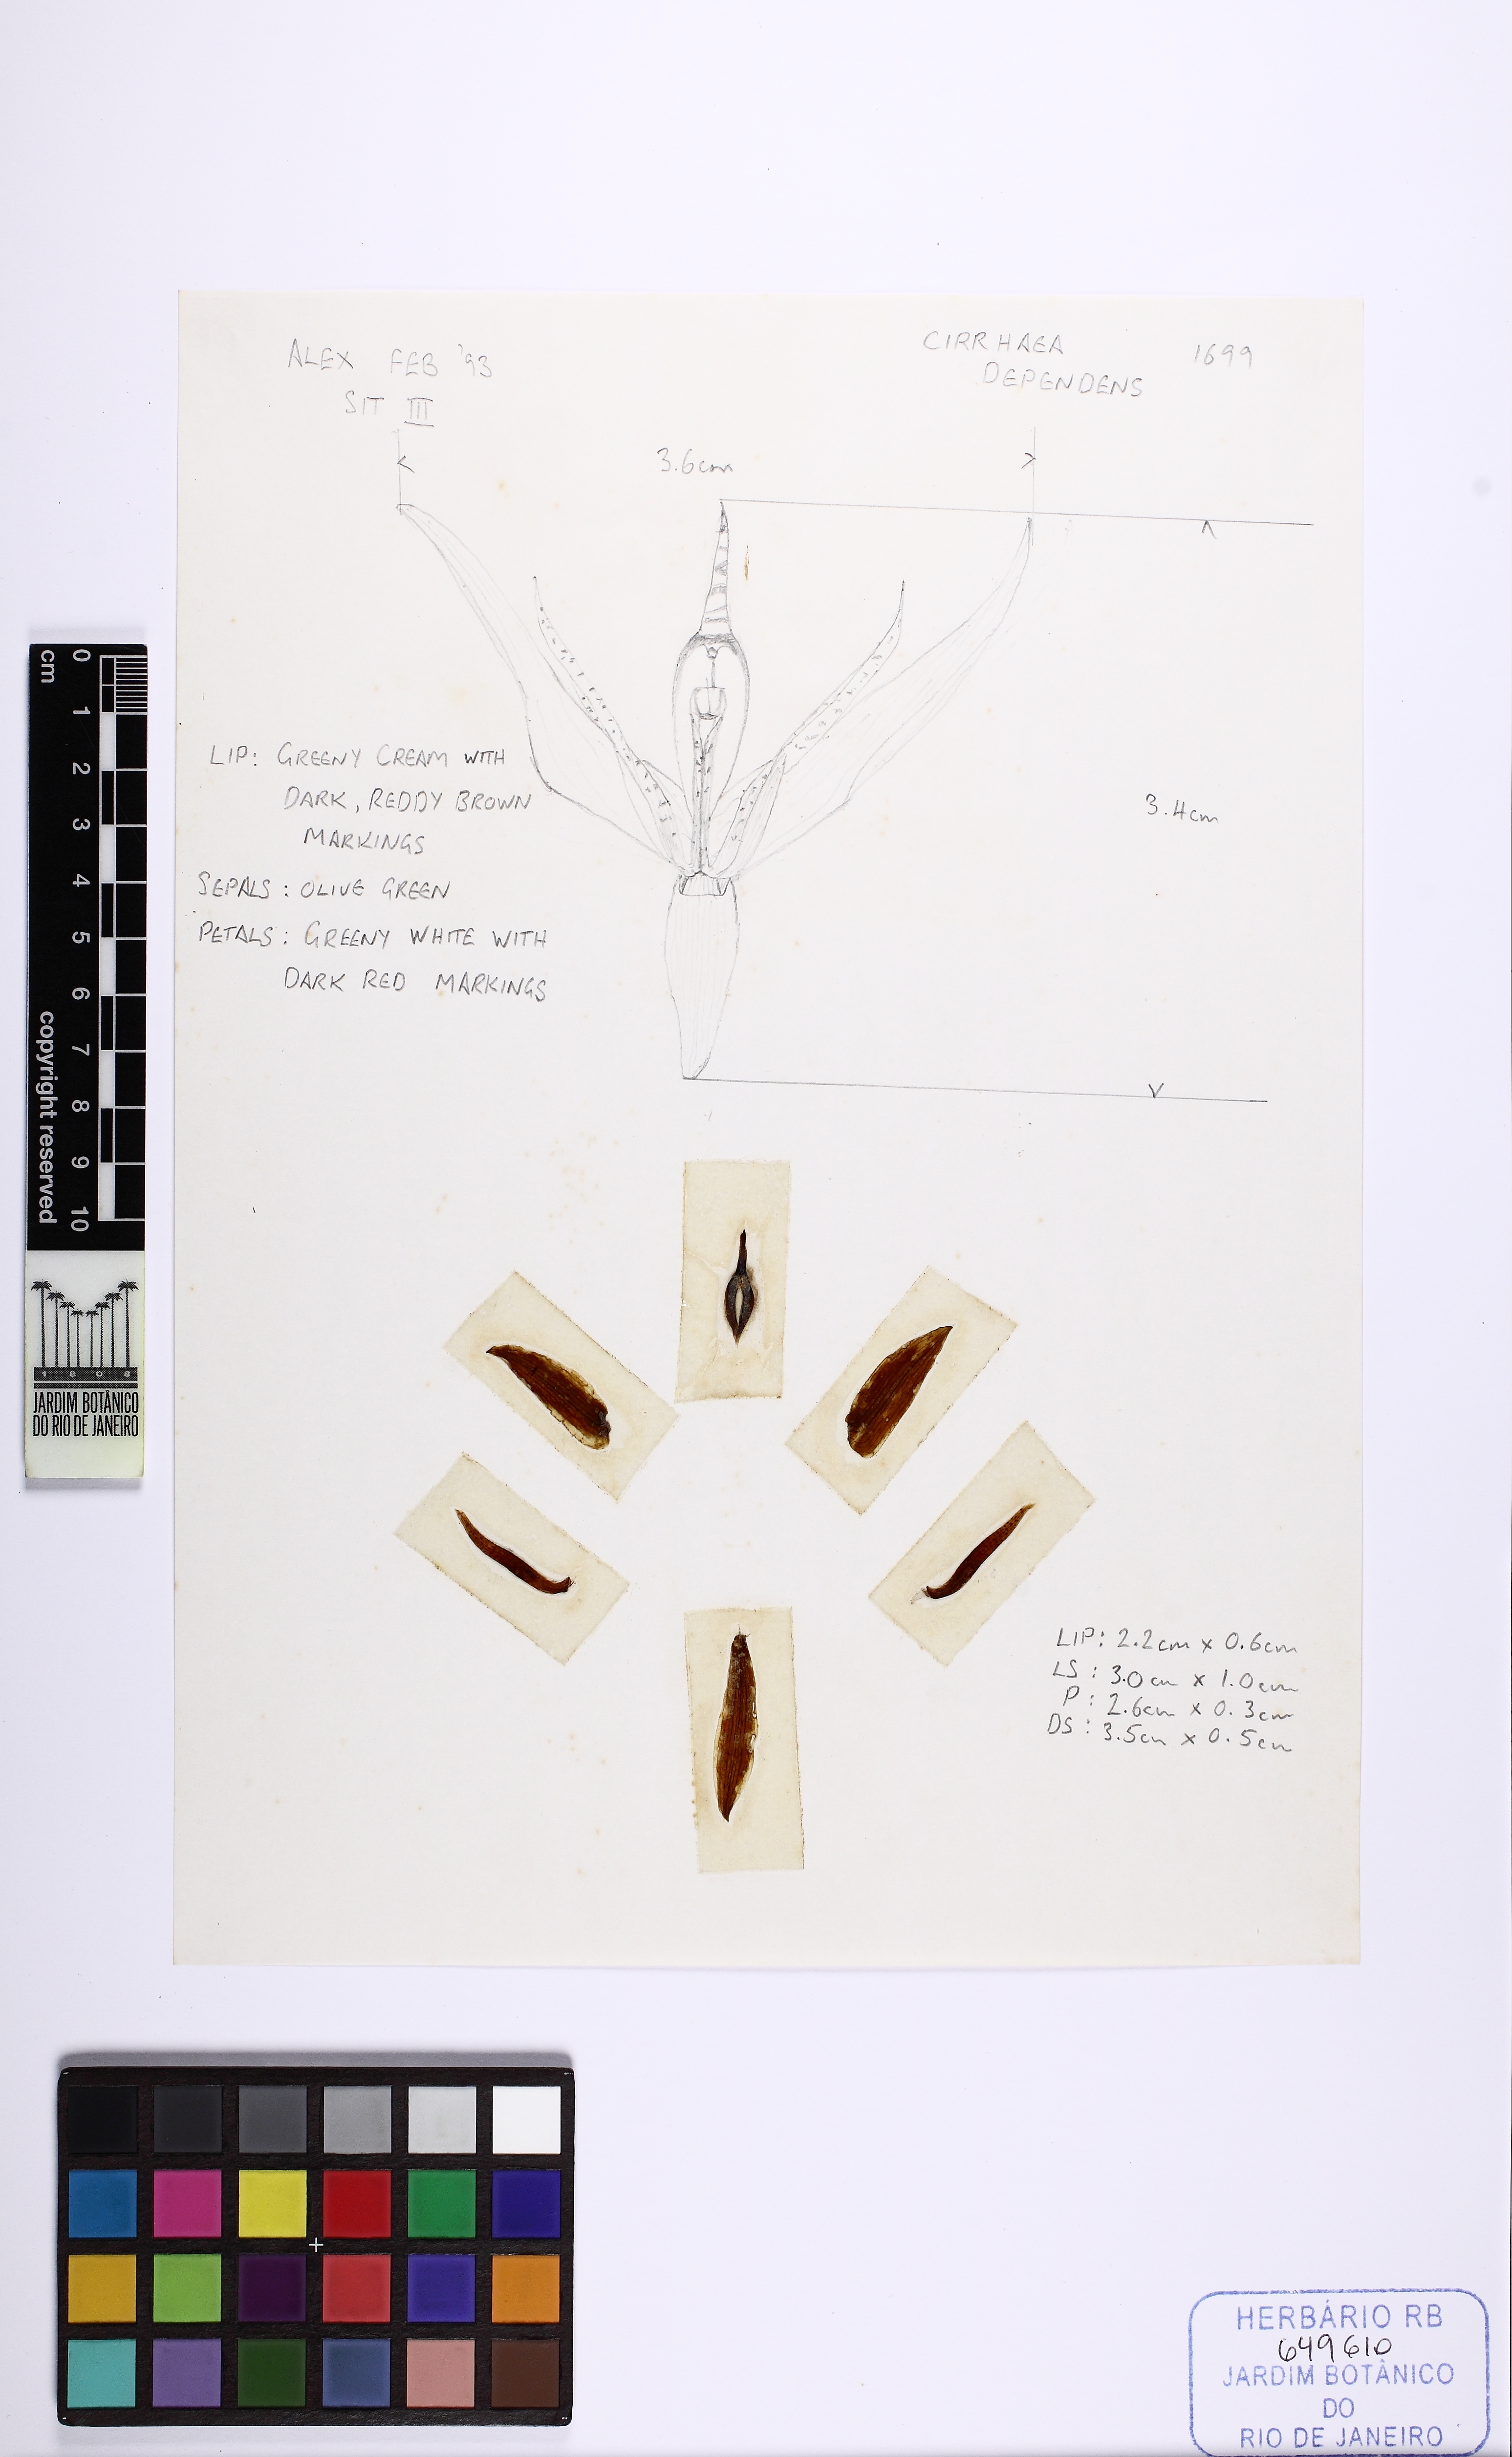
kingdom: Plantae
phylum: Tracheophyta
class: Liliopsida
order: Asparagales
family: Orchidaceae
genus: Cirrhaea
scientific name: Cirrhaea dependens
